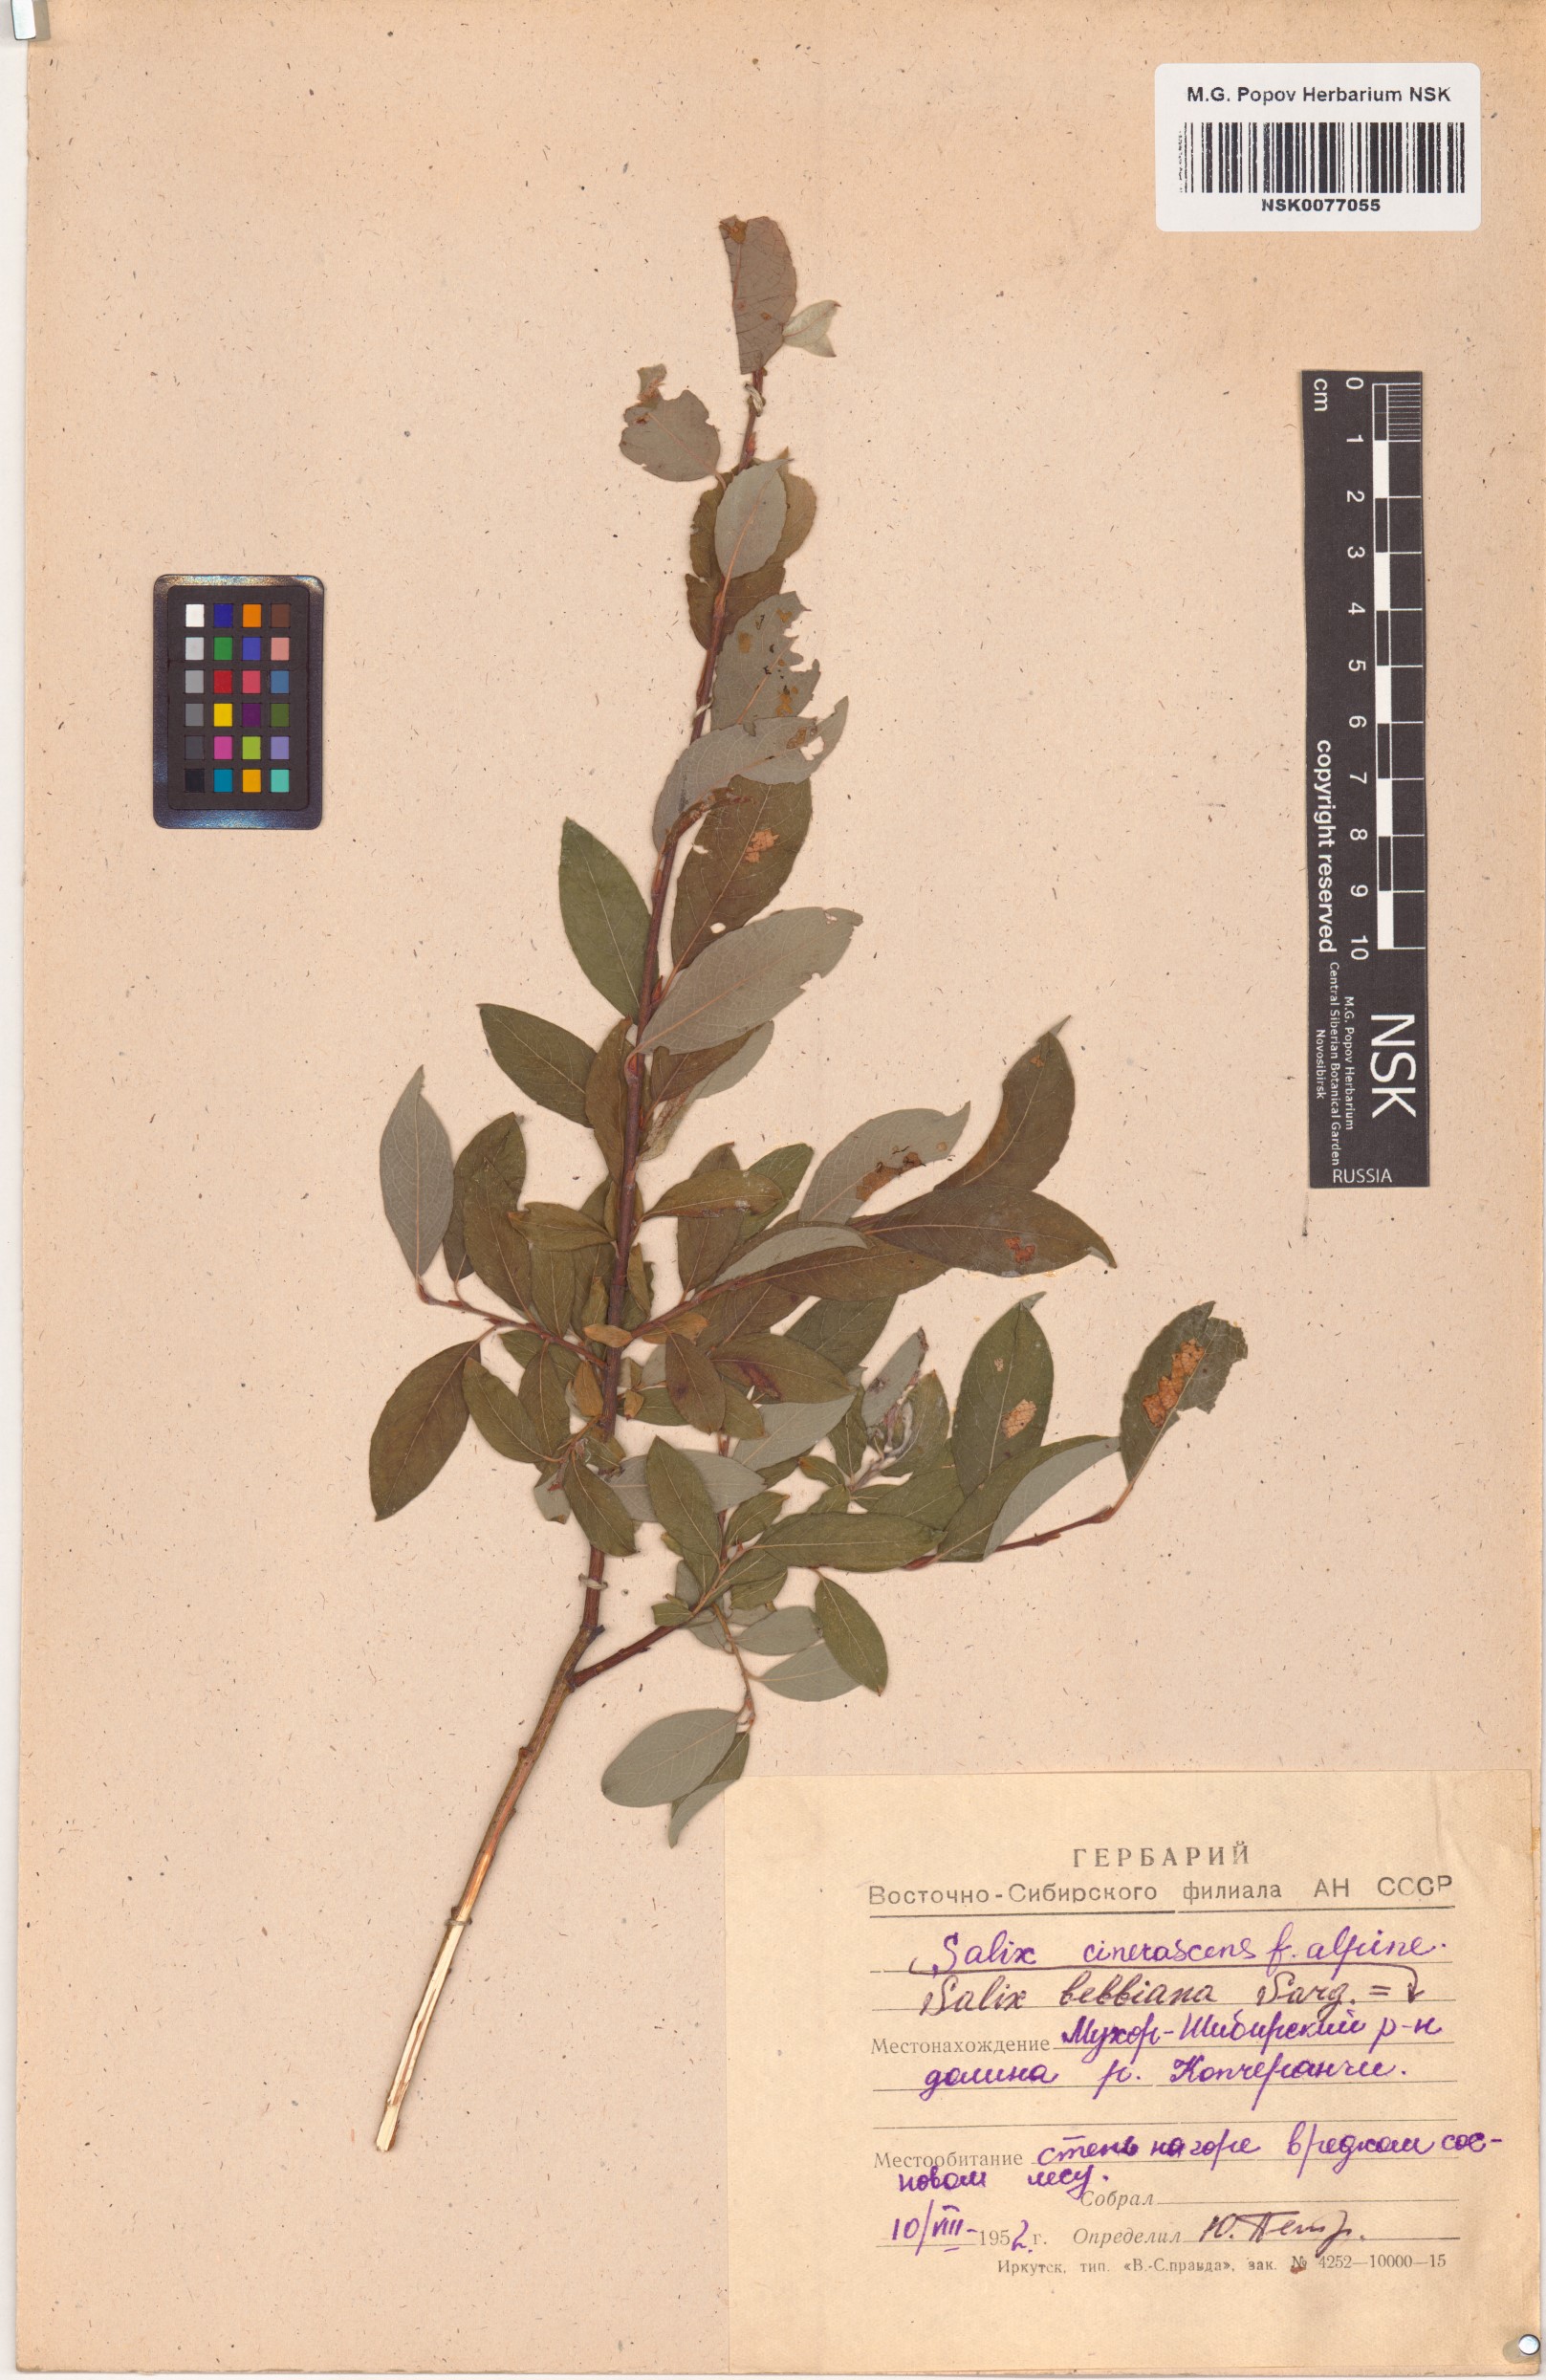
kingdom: Plantae
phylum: Tracheophyta
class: Magnoliopsida
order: Malpighiales
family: Salicaceae
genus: Salix
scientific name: Salix bebbiana
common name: Bebb's willow
